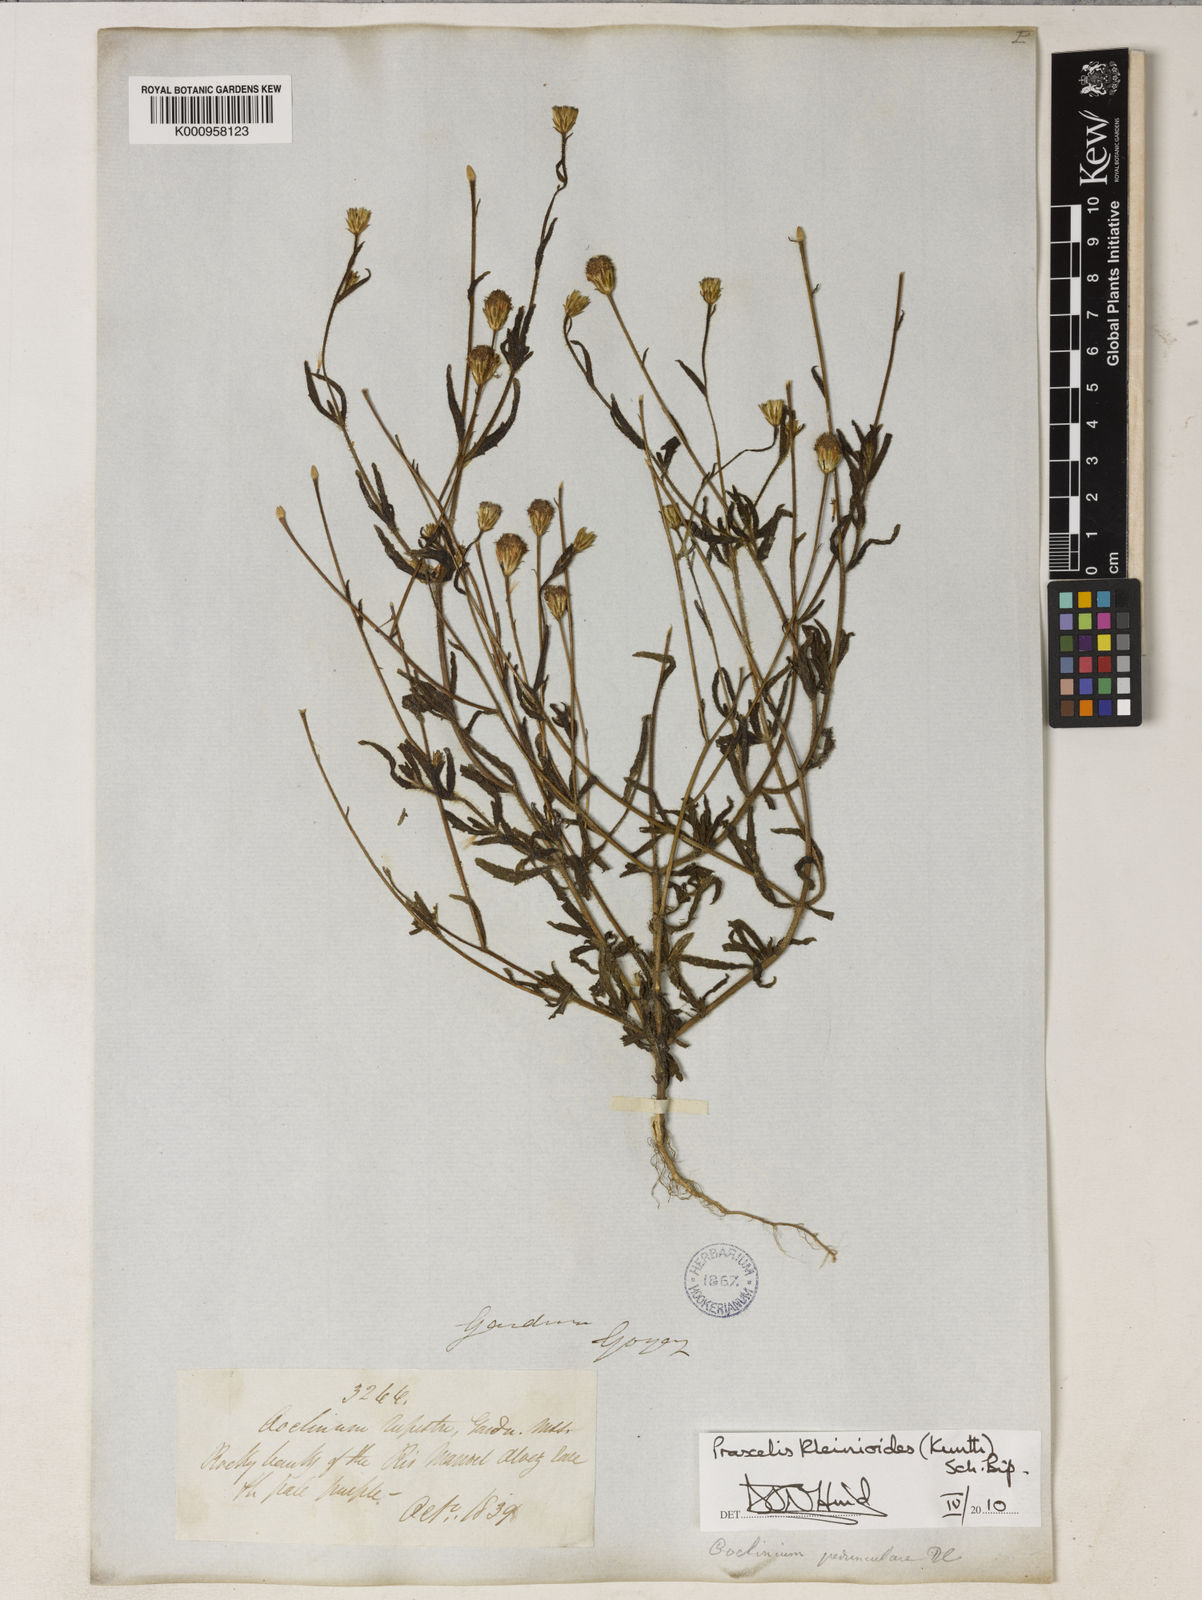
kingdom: Plantae
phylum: Tracheophyta
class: Magnoliopsida
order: Asterales
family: Asteraceae
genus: Praxelis
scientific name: Praxelis kleinioides
